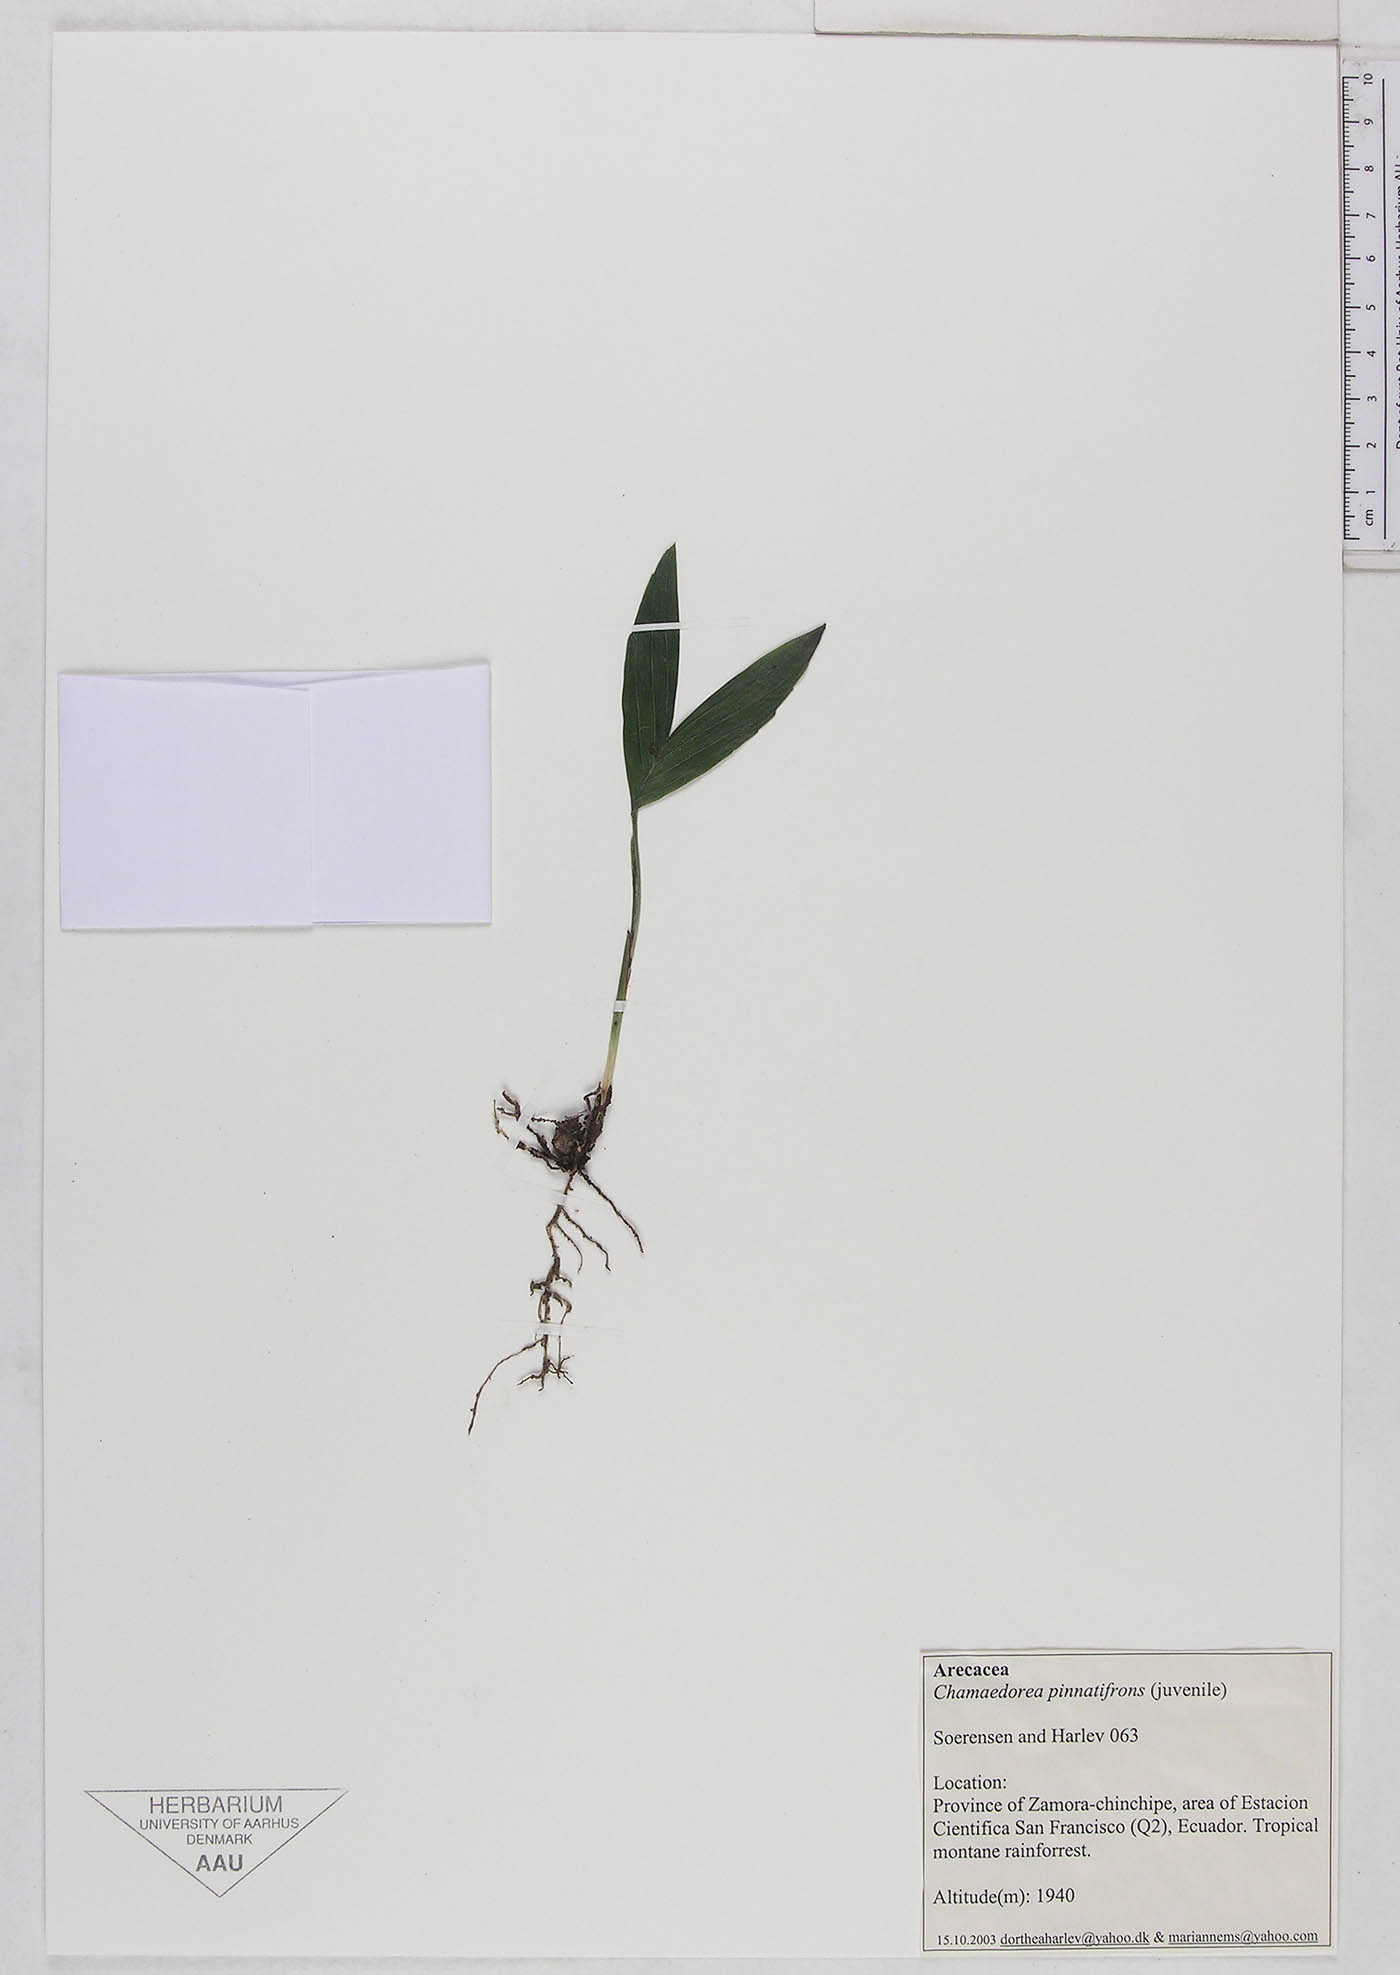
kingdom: Plantae
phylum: Tracheophyta
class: Liliopsida
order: Arecales
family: Arecaceae
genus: Chamaedorea
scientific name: Chamaedorea pinnatifrons
